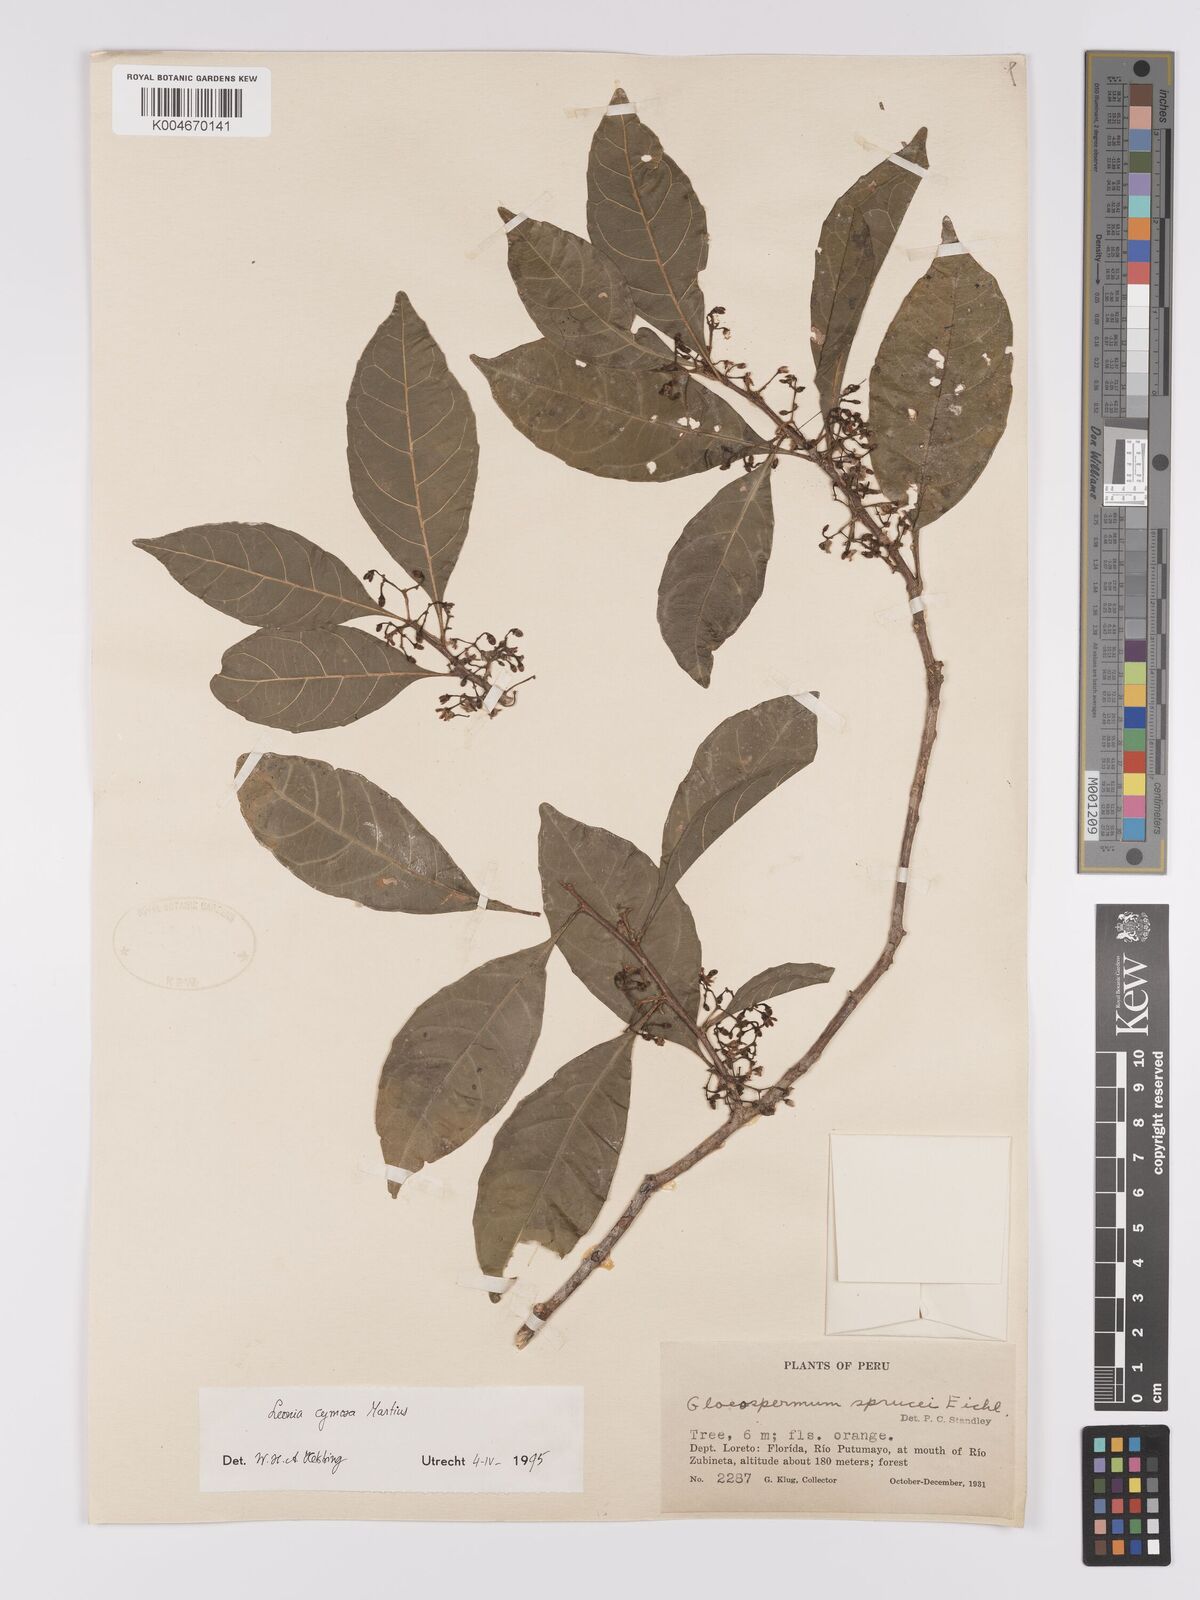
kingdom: Plantae
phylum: Tracheophyta
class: Magnoliopsida
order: Malpighiales
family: Violaceae
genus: Leonia
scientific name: Leonia cymosa
